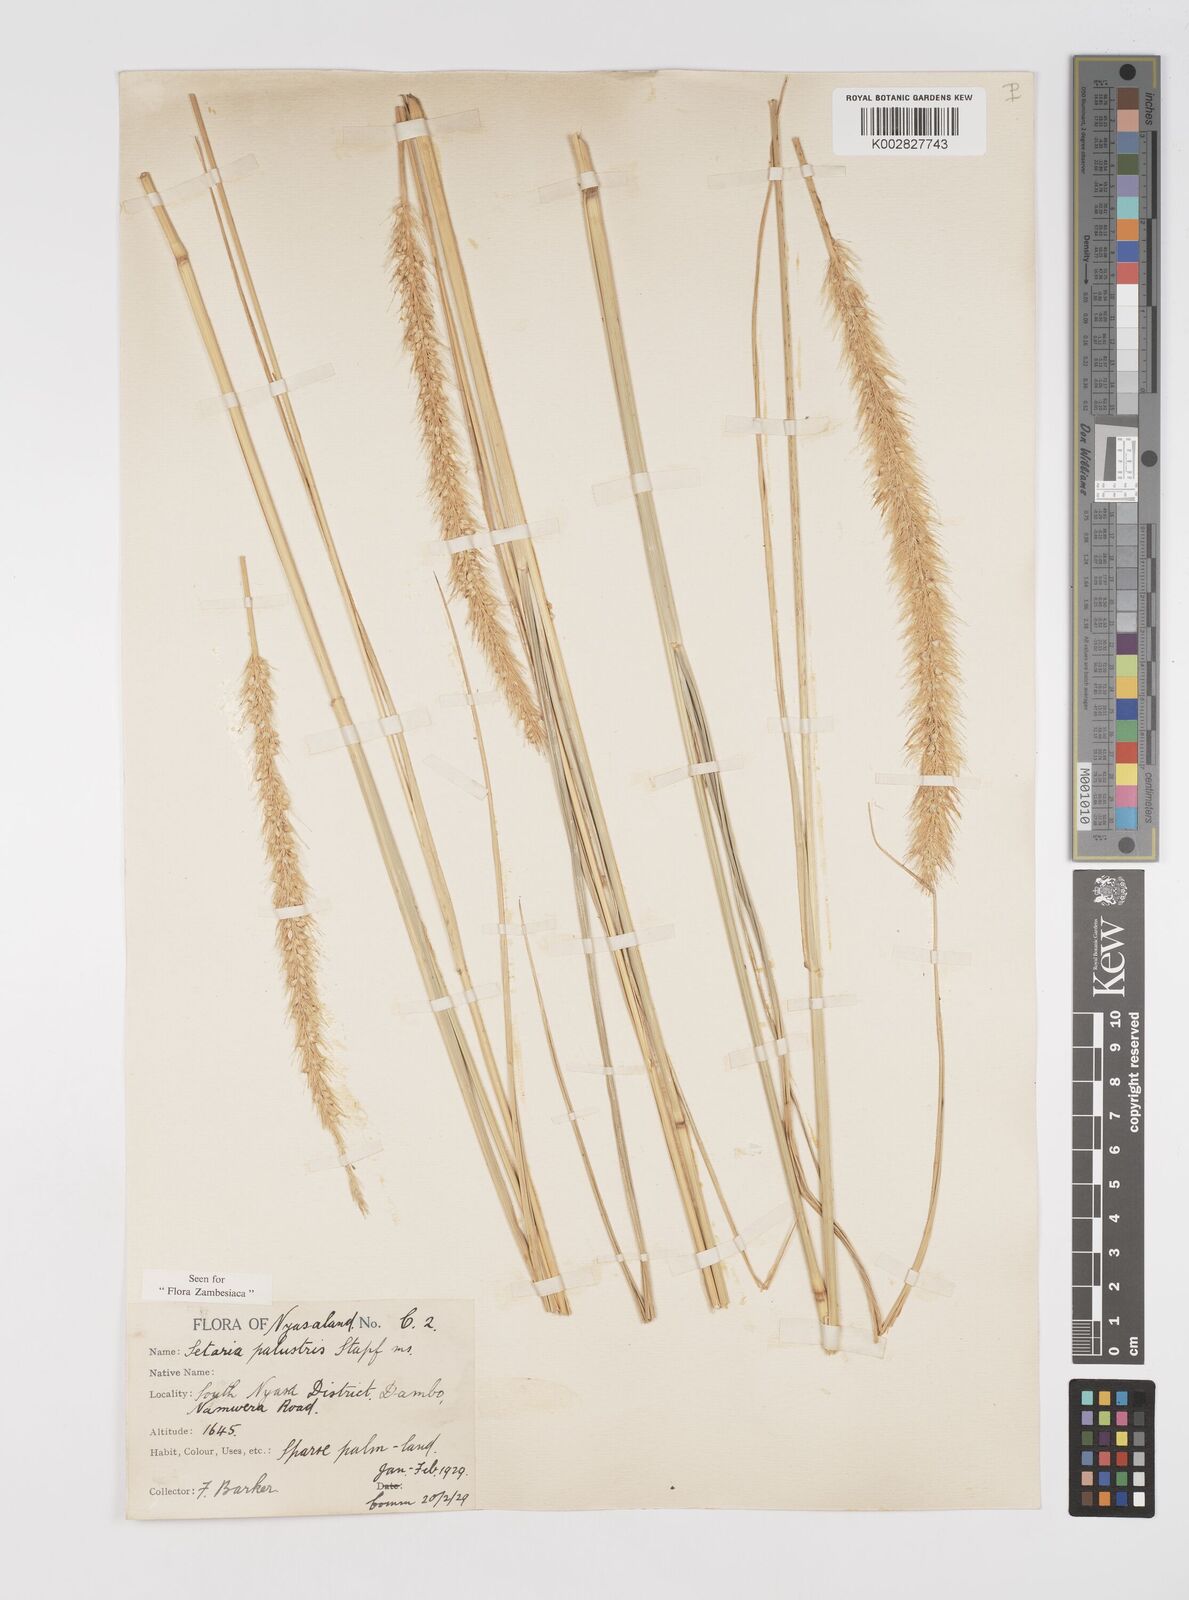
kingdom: Plantae
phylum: Tracheophyta
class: Liliopsida
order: Poales
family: Poaceae
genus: Setaria
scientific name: Setaria incrassata
